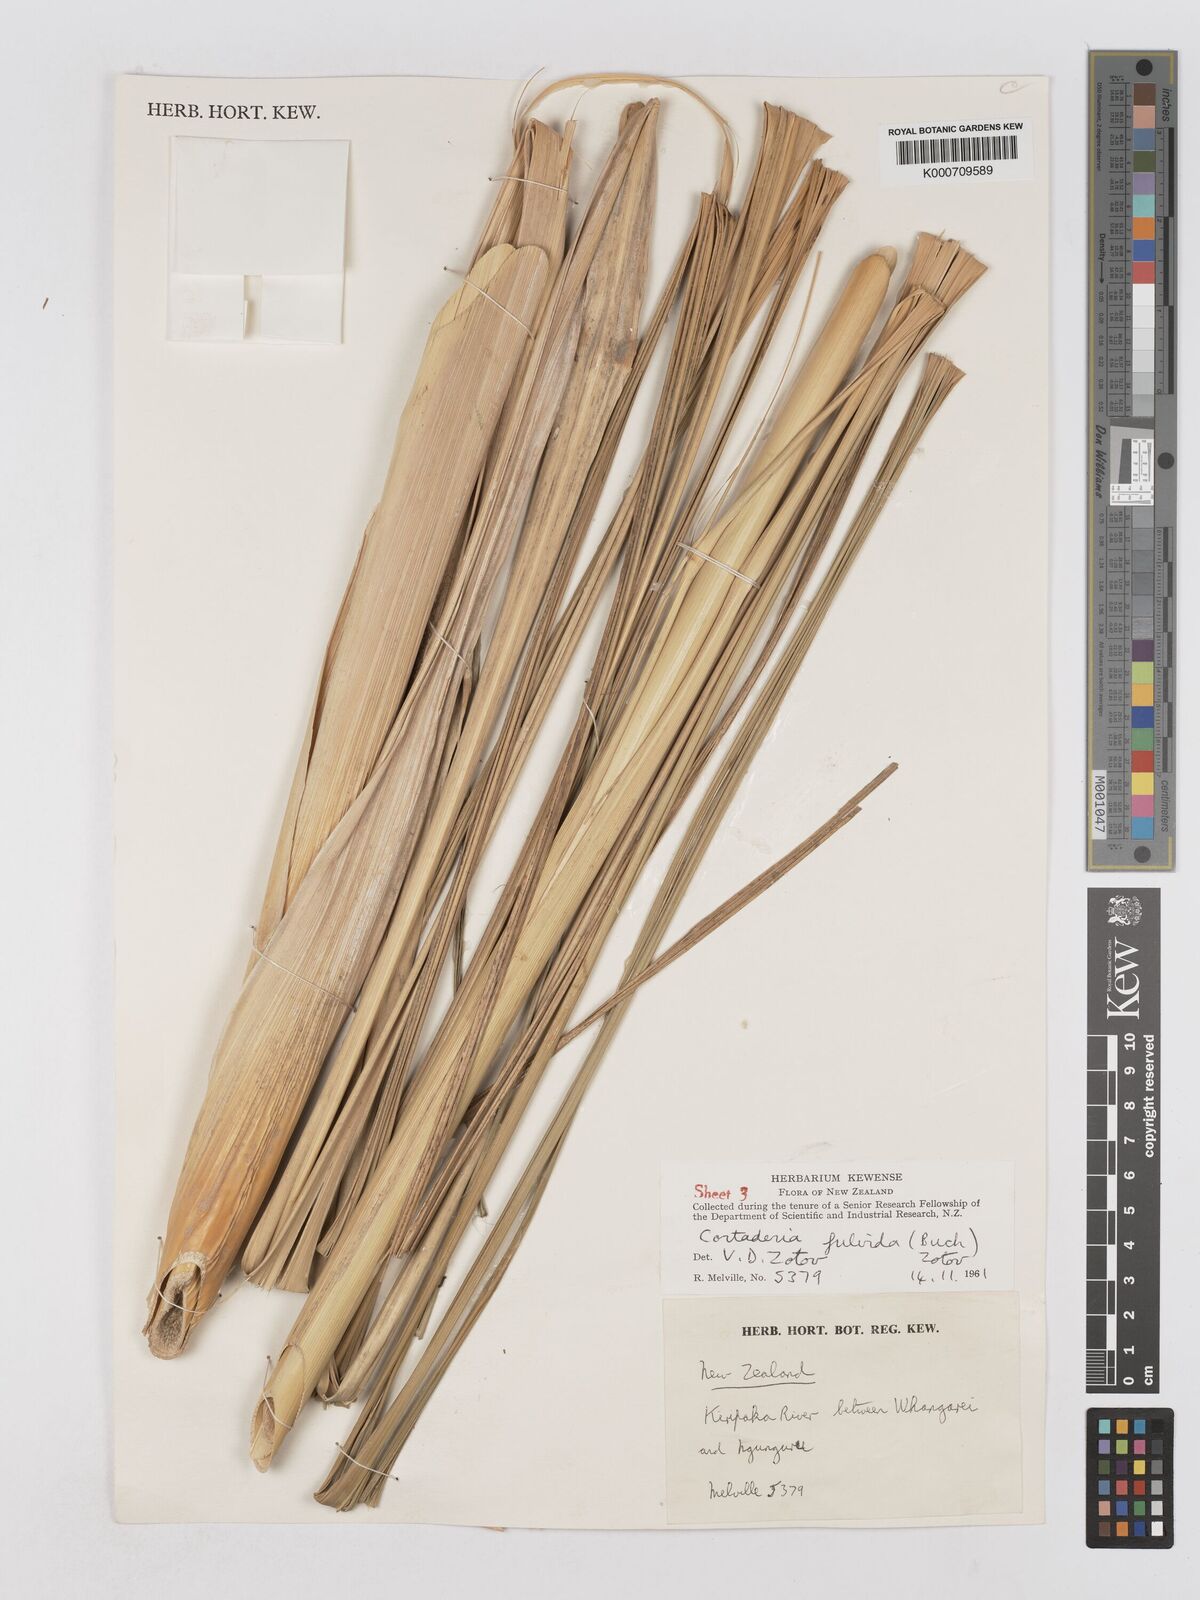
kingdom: Plantae
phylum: Tracheophyta
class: Liliopsida
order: Poales
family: Poaceae
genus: Austroderia
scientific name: Austroderia fulvida
